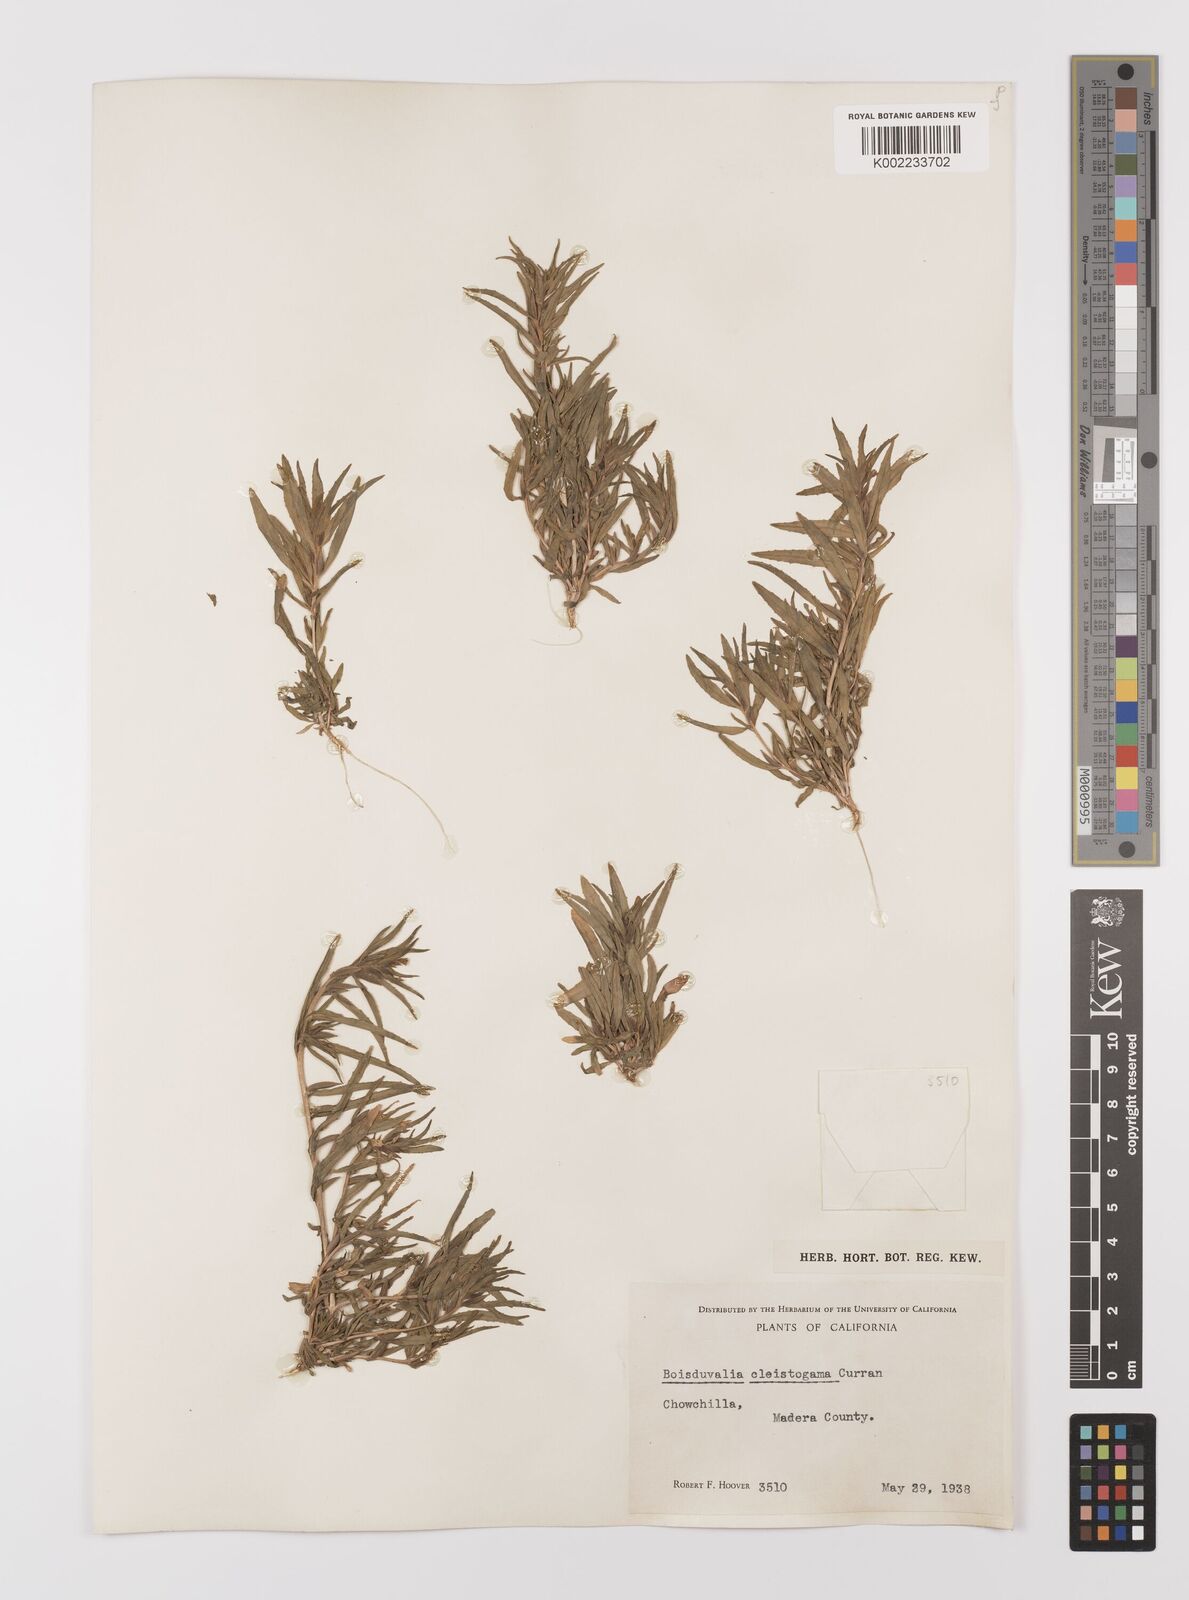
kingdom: Plantae
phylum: Tracheophyta
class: Magnoliopsida
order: Myrtales
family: Onagraceae
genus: Epilobium
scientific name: Epilobium cleistogamum
